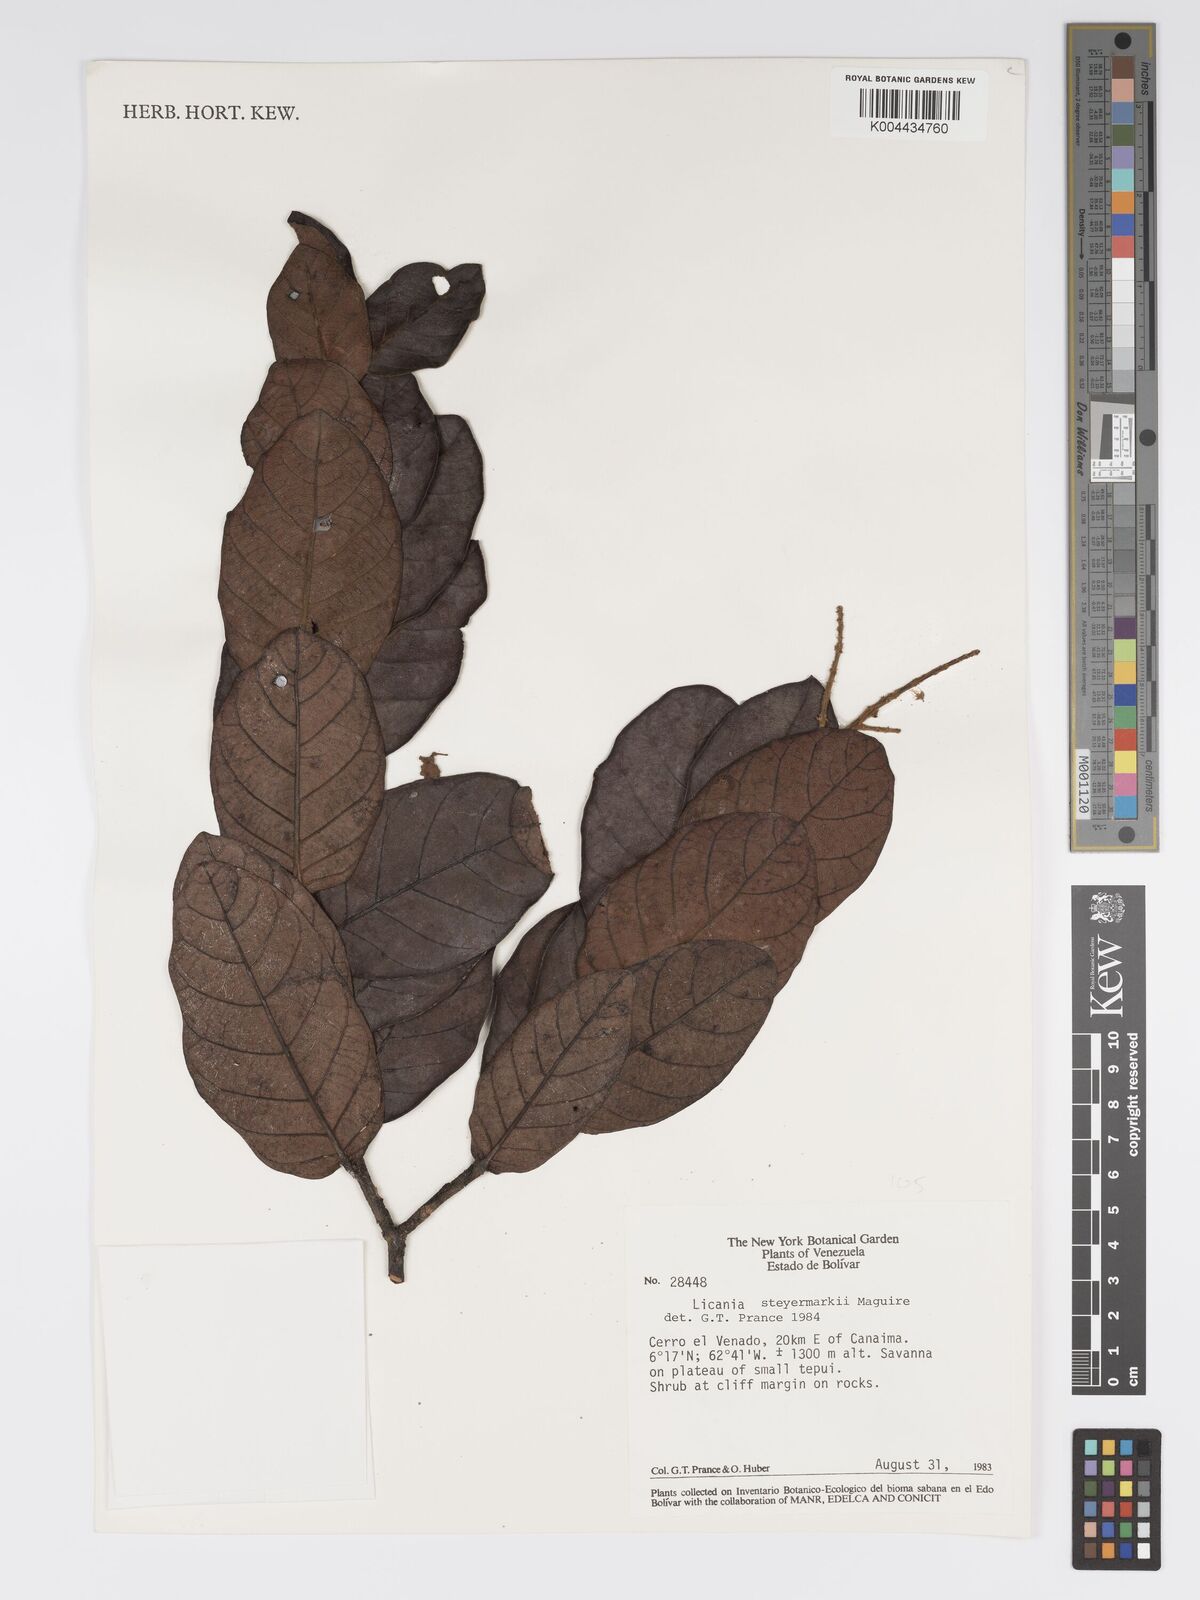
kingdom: Plantae
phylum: Tracheophyta
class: Magnoliopsida
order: Malpighiales
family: Chrysobalanaceae
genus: Licania
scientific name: Licania steyermarkii
